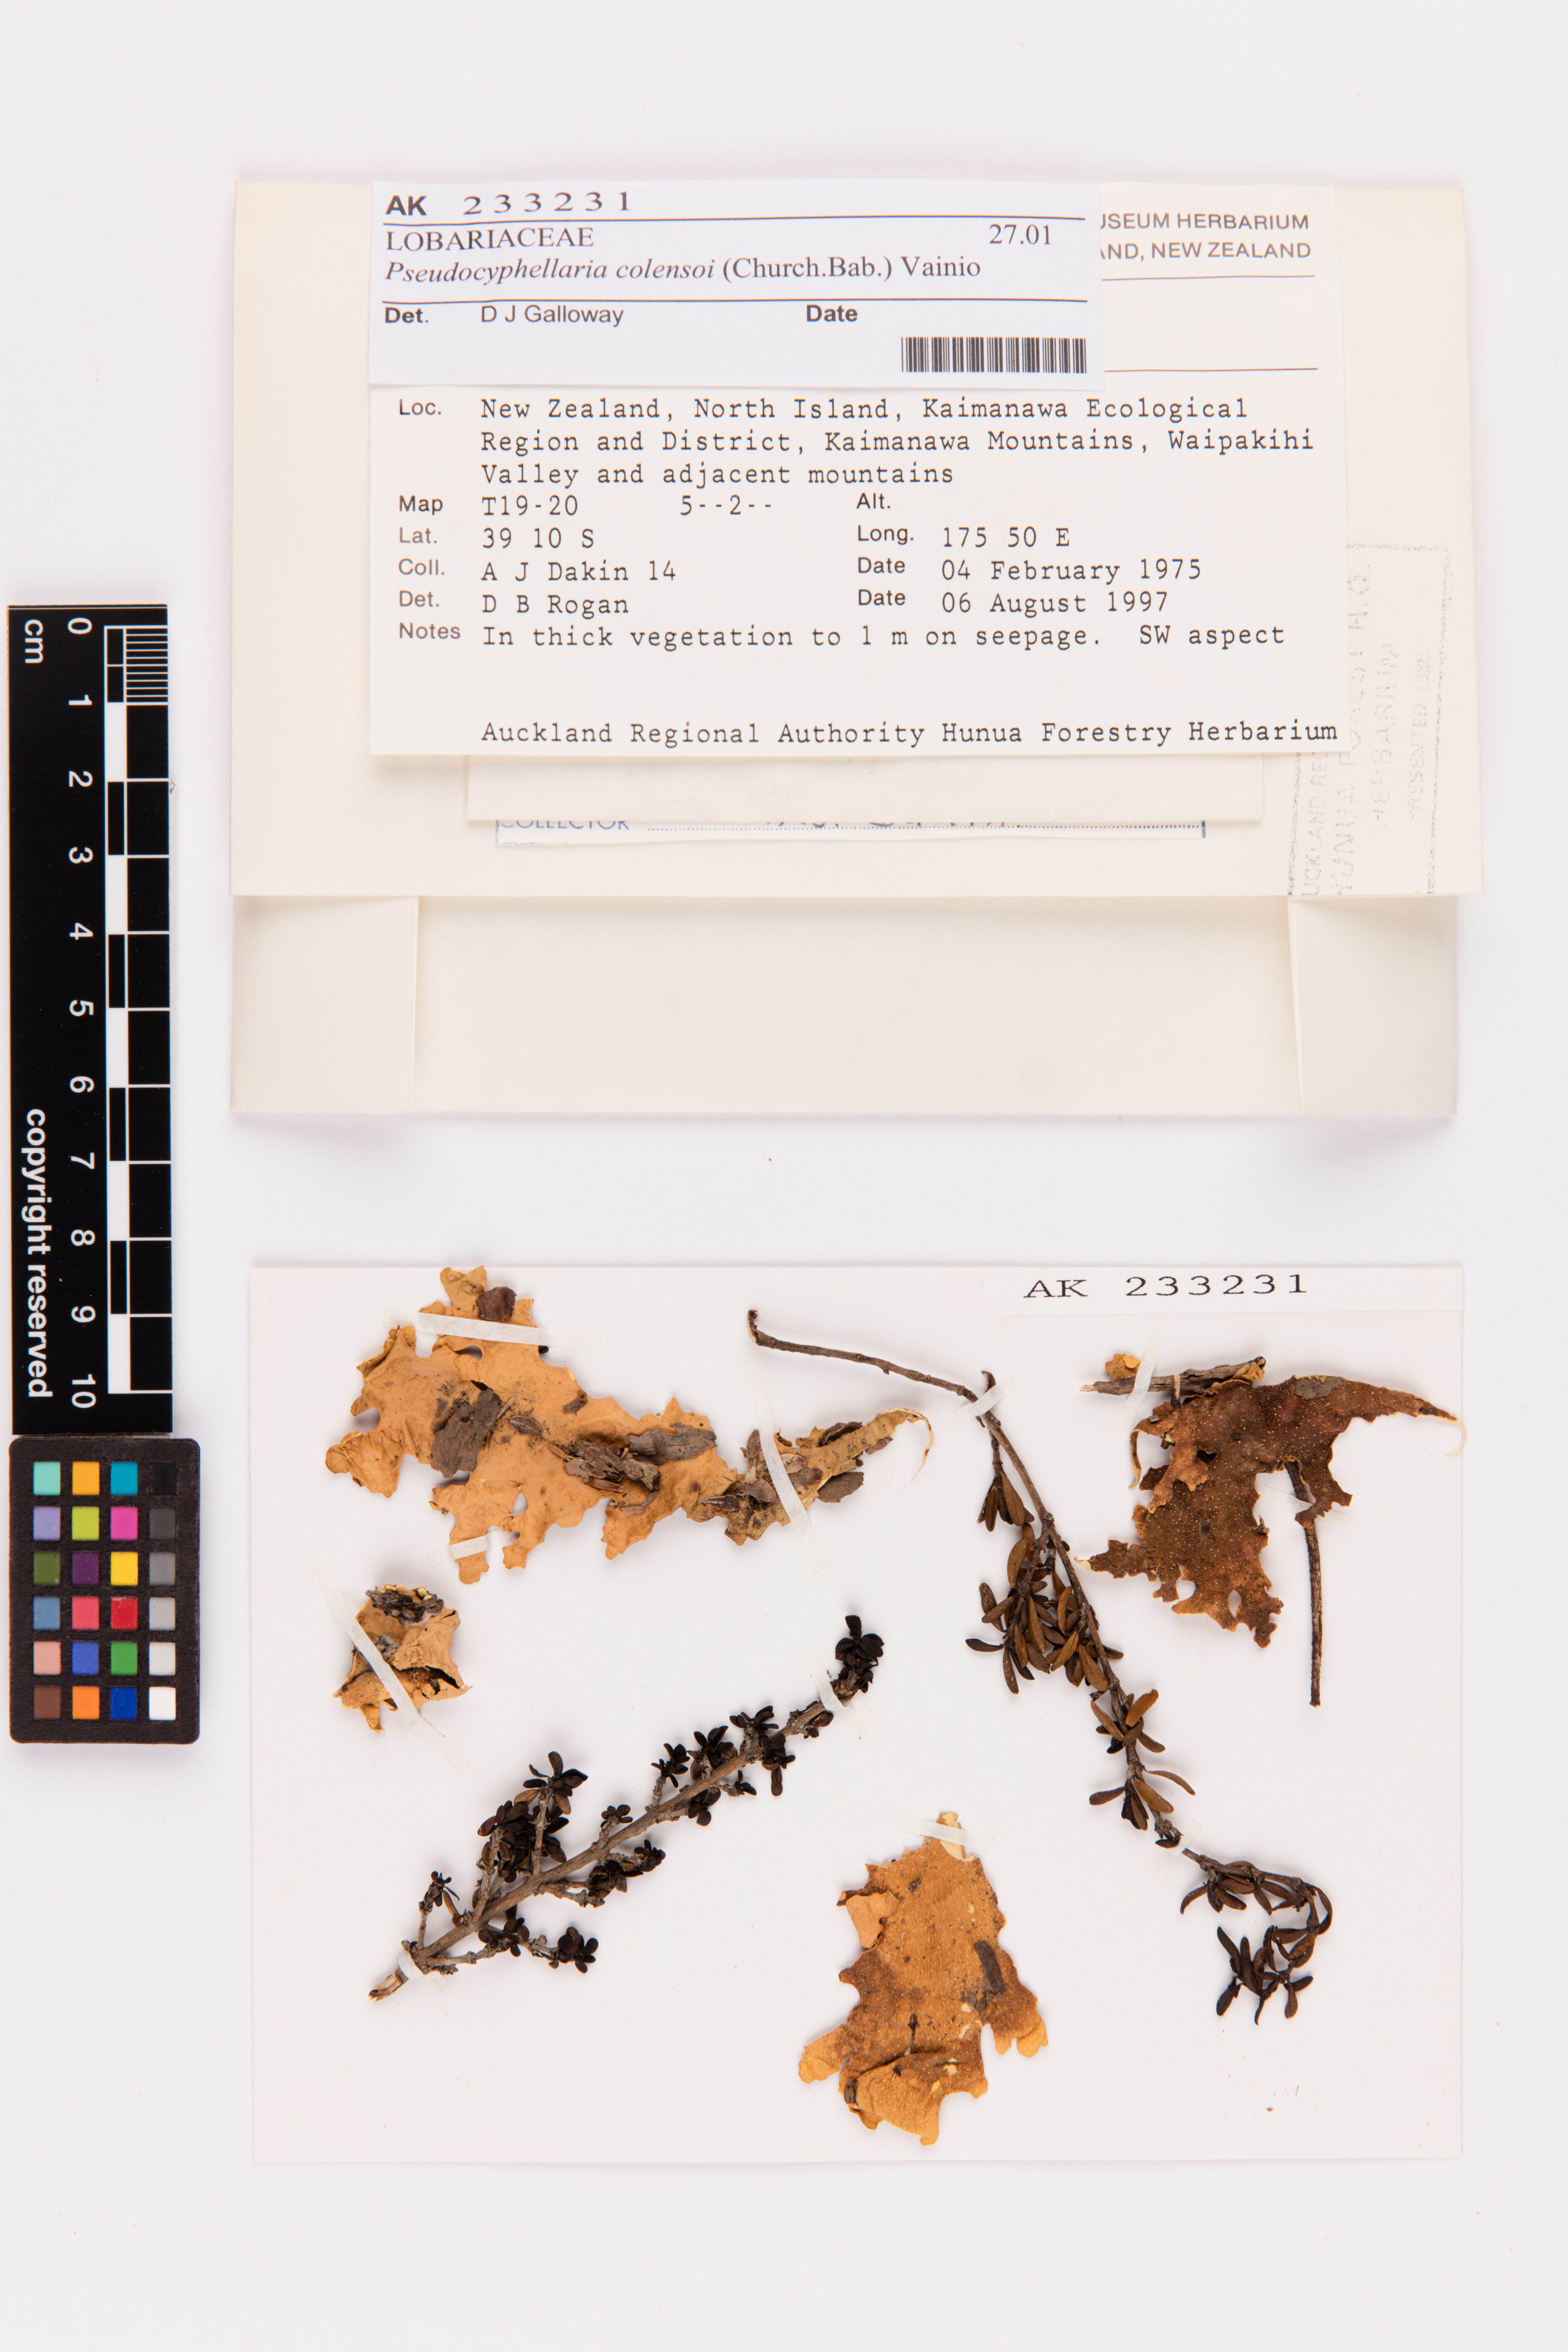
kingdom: Fungi
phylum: Ascomycota
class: Lecanoromycetes
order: Peltigerales
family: Lobariaceae
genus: Yarrumia
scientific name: Yarrumia colensoi
